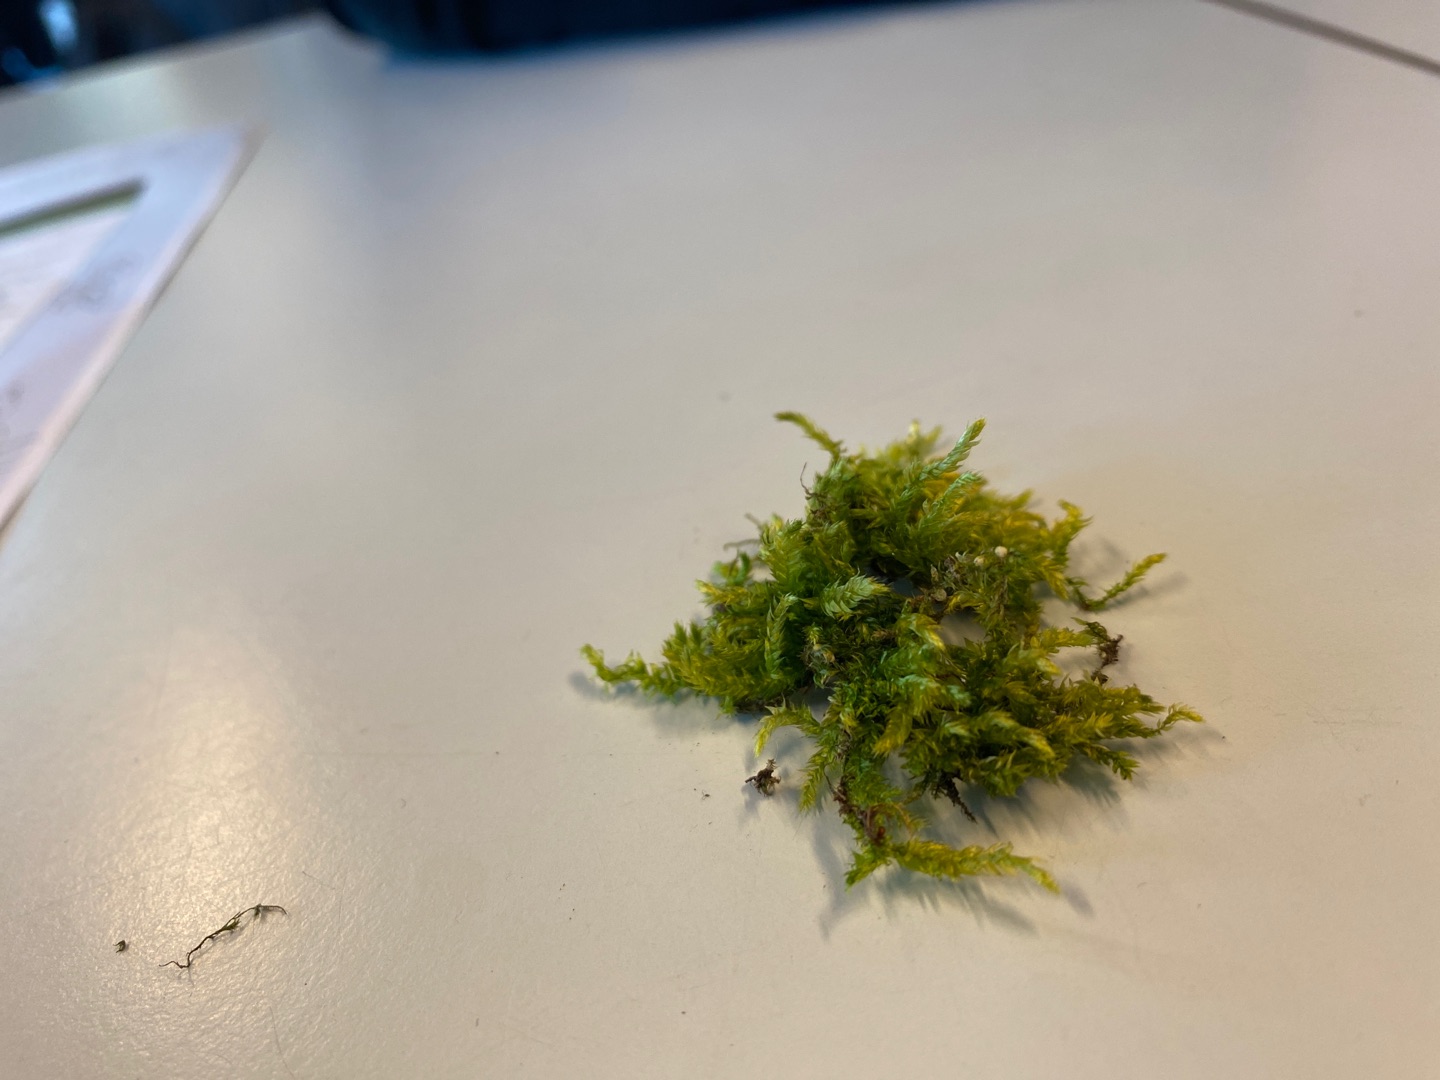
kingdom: Plantae
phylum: Bryophyta
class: Bryopsida
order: Hypnales
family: Brachytheciaceae
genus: Brachythecium
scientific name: Brachythecium rutabulum
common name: Almindelig kortkapsel
